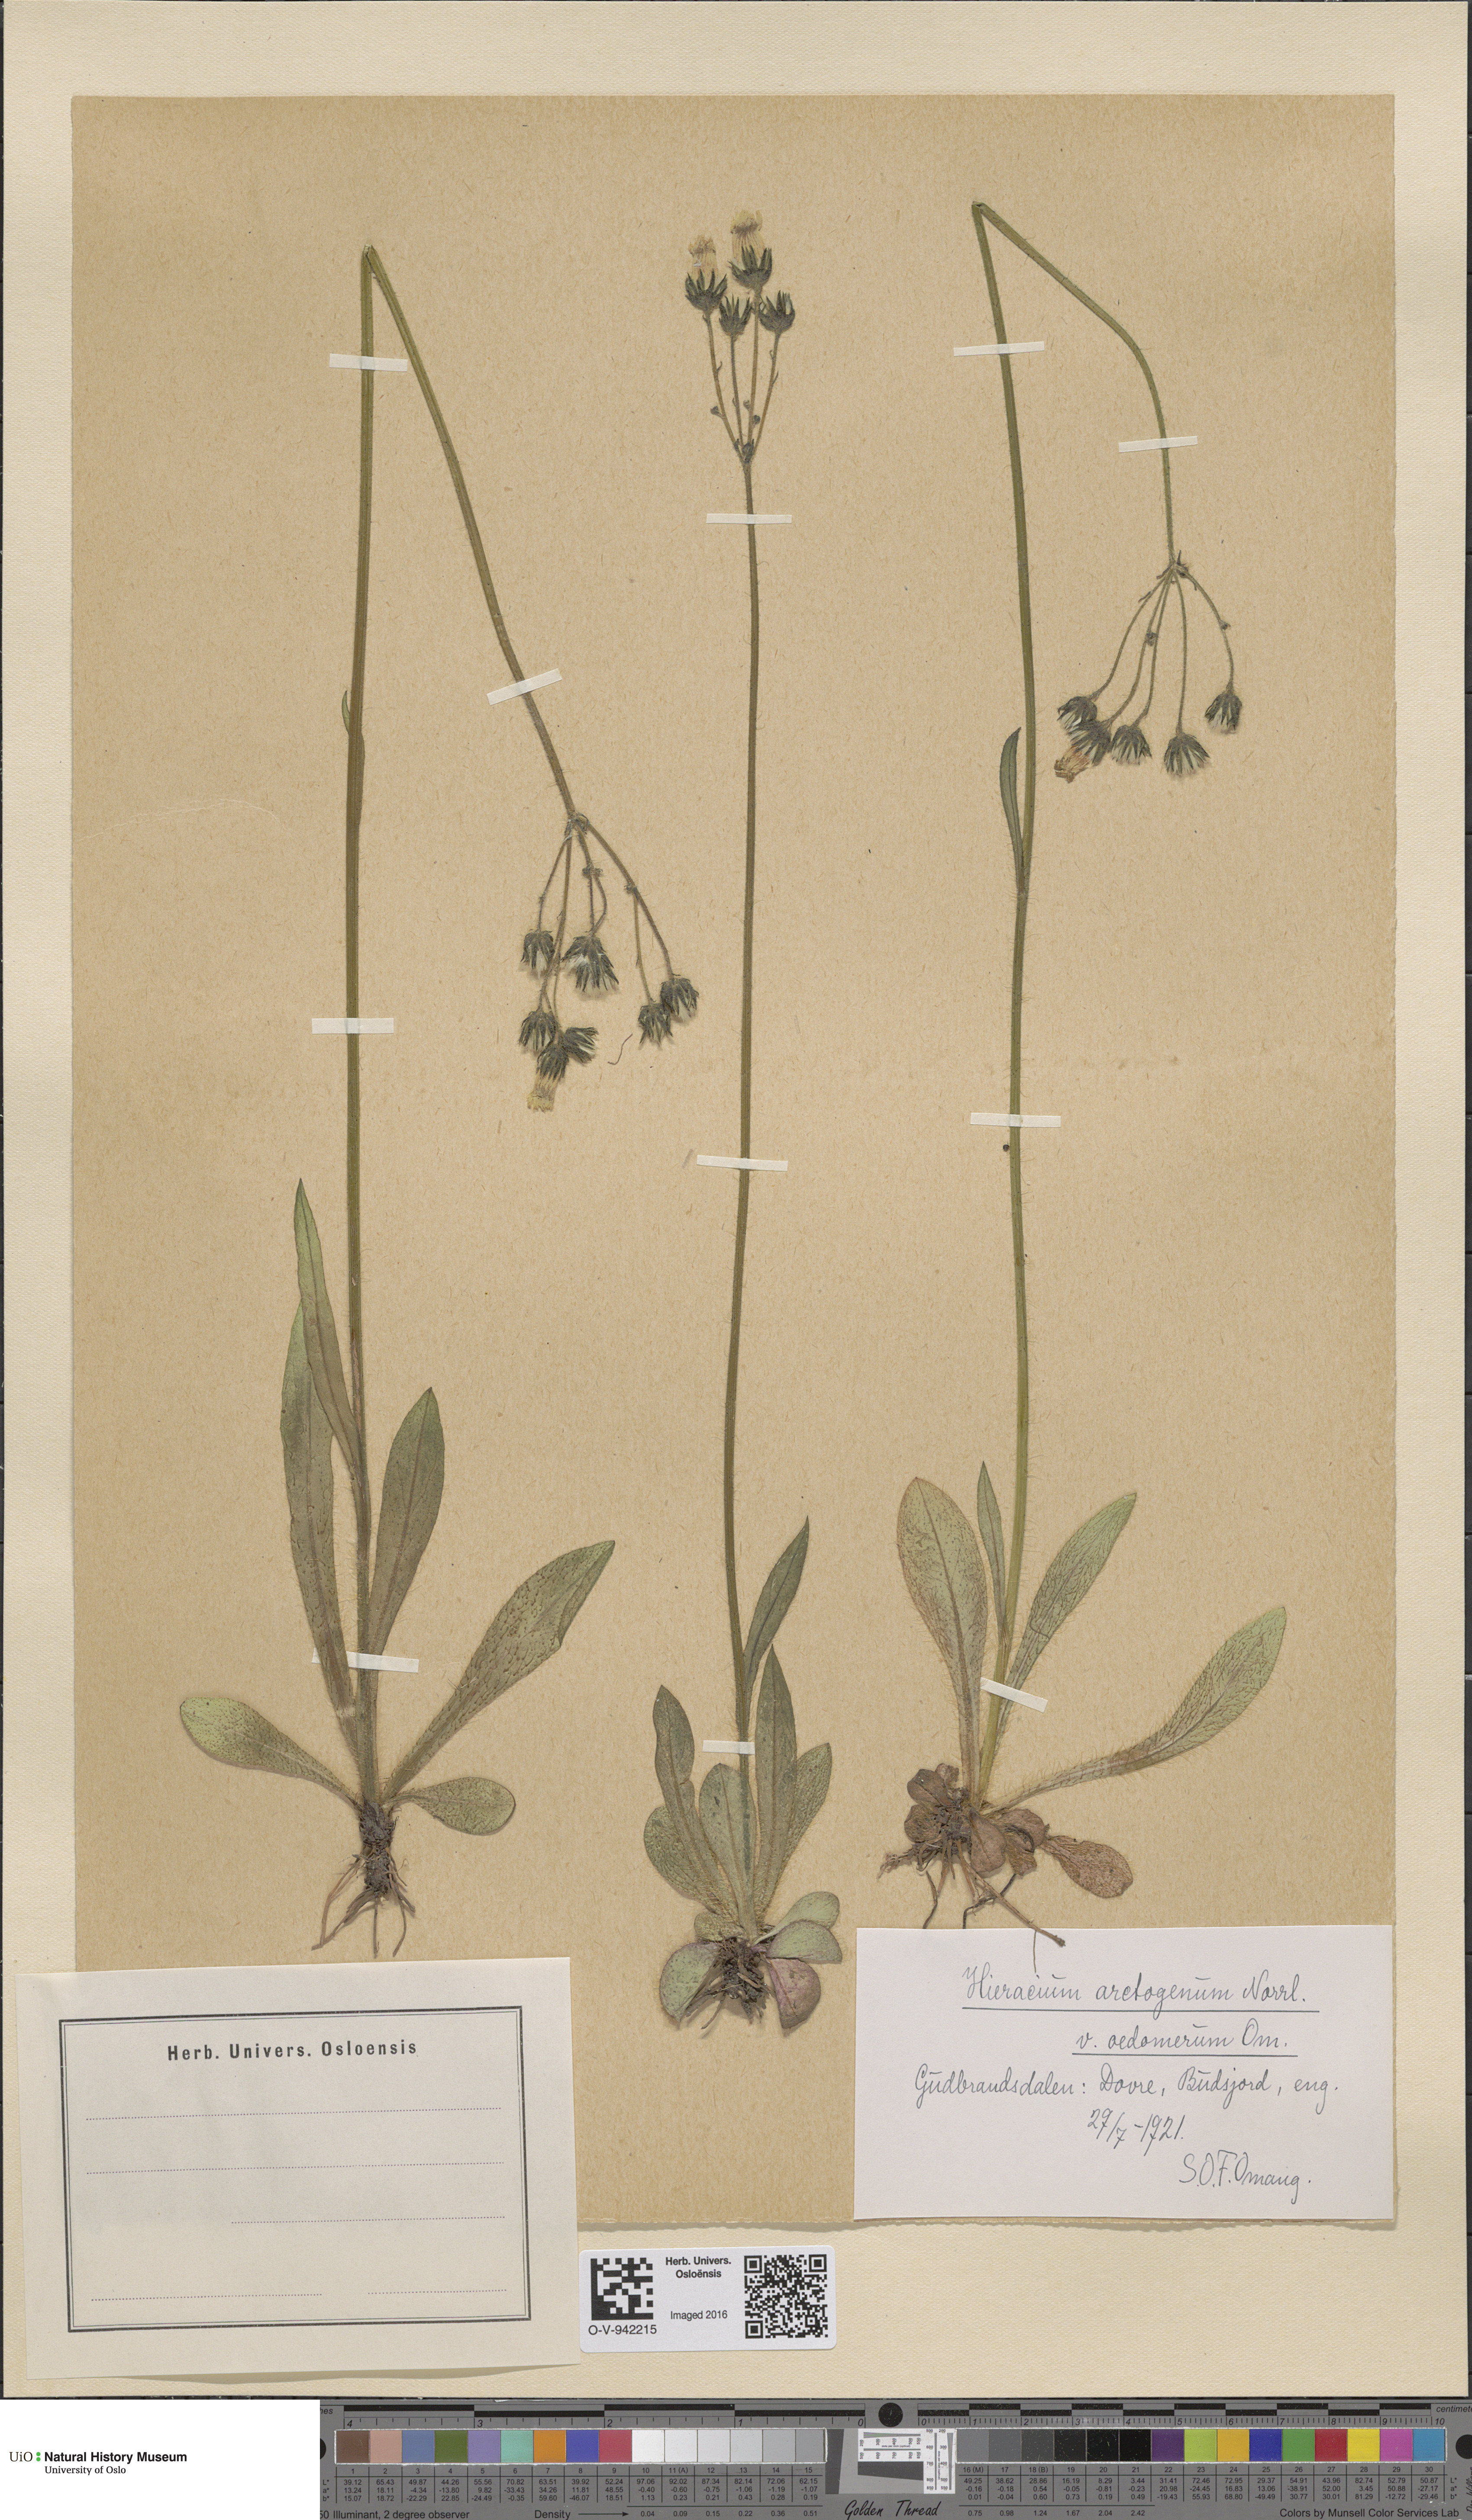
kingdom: Plantae
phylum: Tracheophyta
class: Magnoliopsida
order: Asterales
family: Asteraceae
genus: Pilosella
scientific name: Pilosella cymosa
